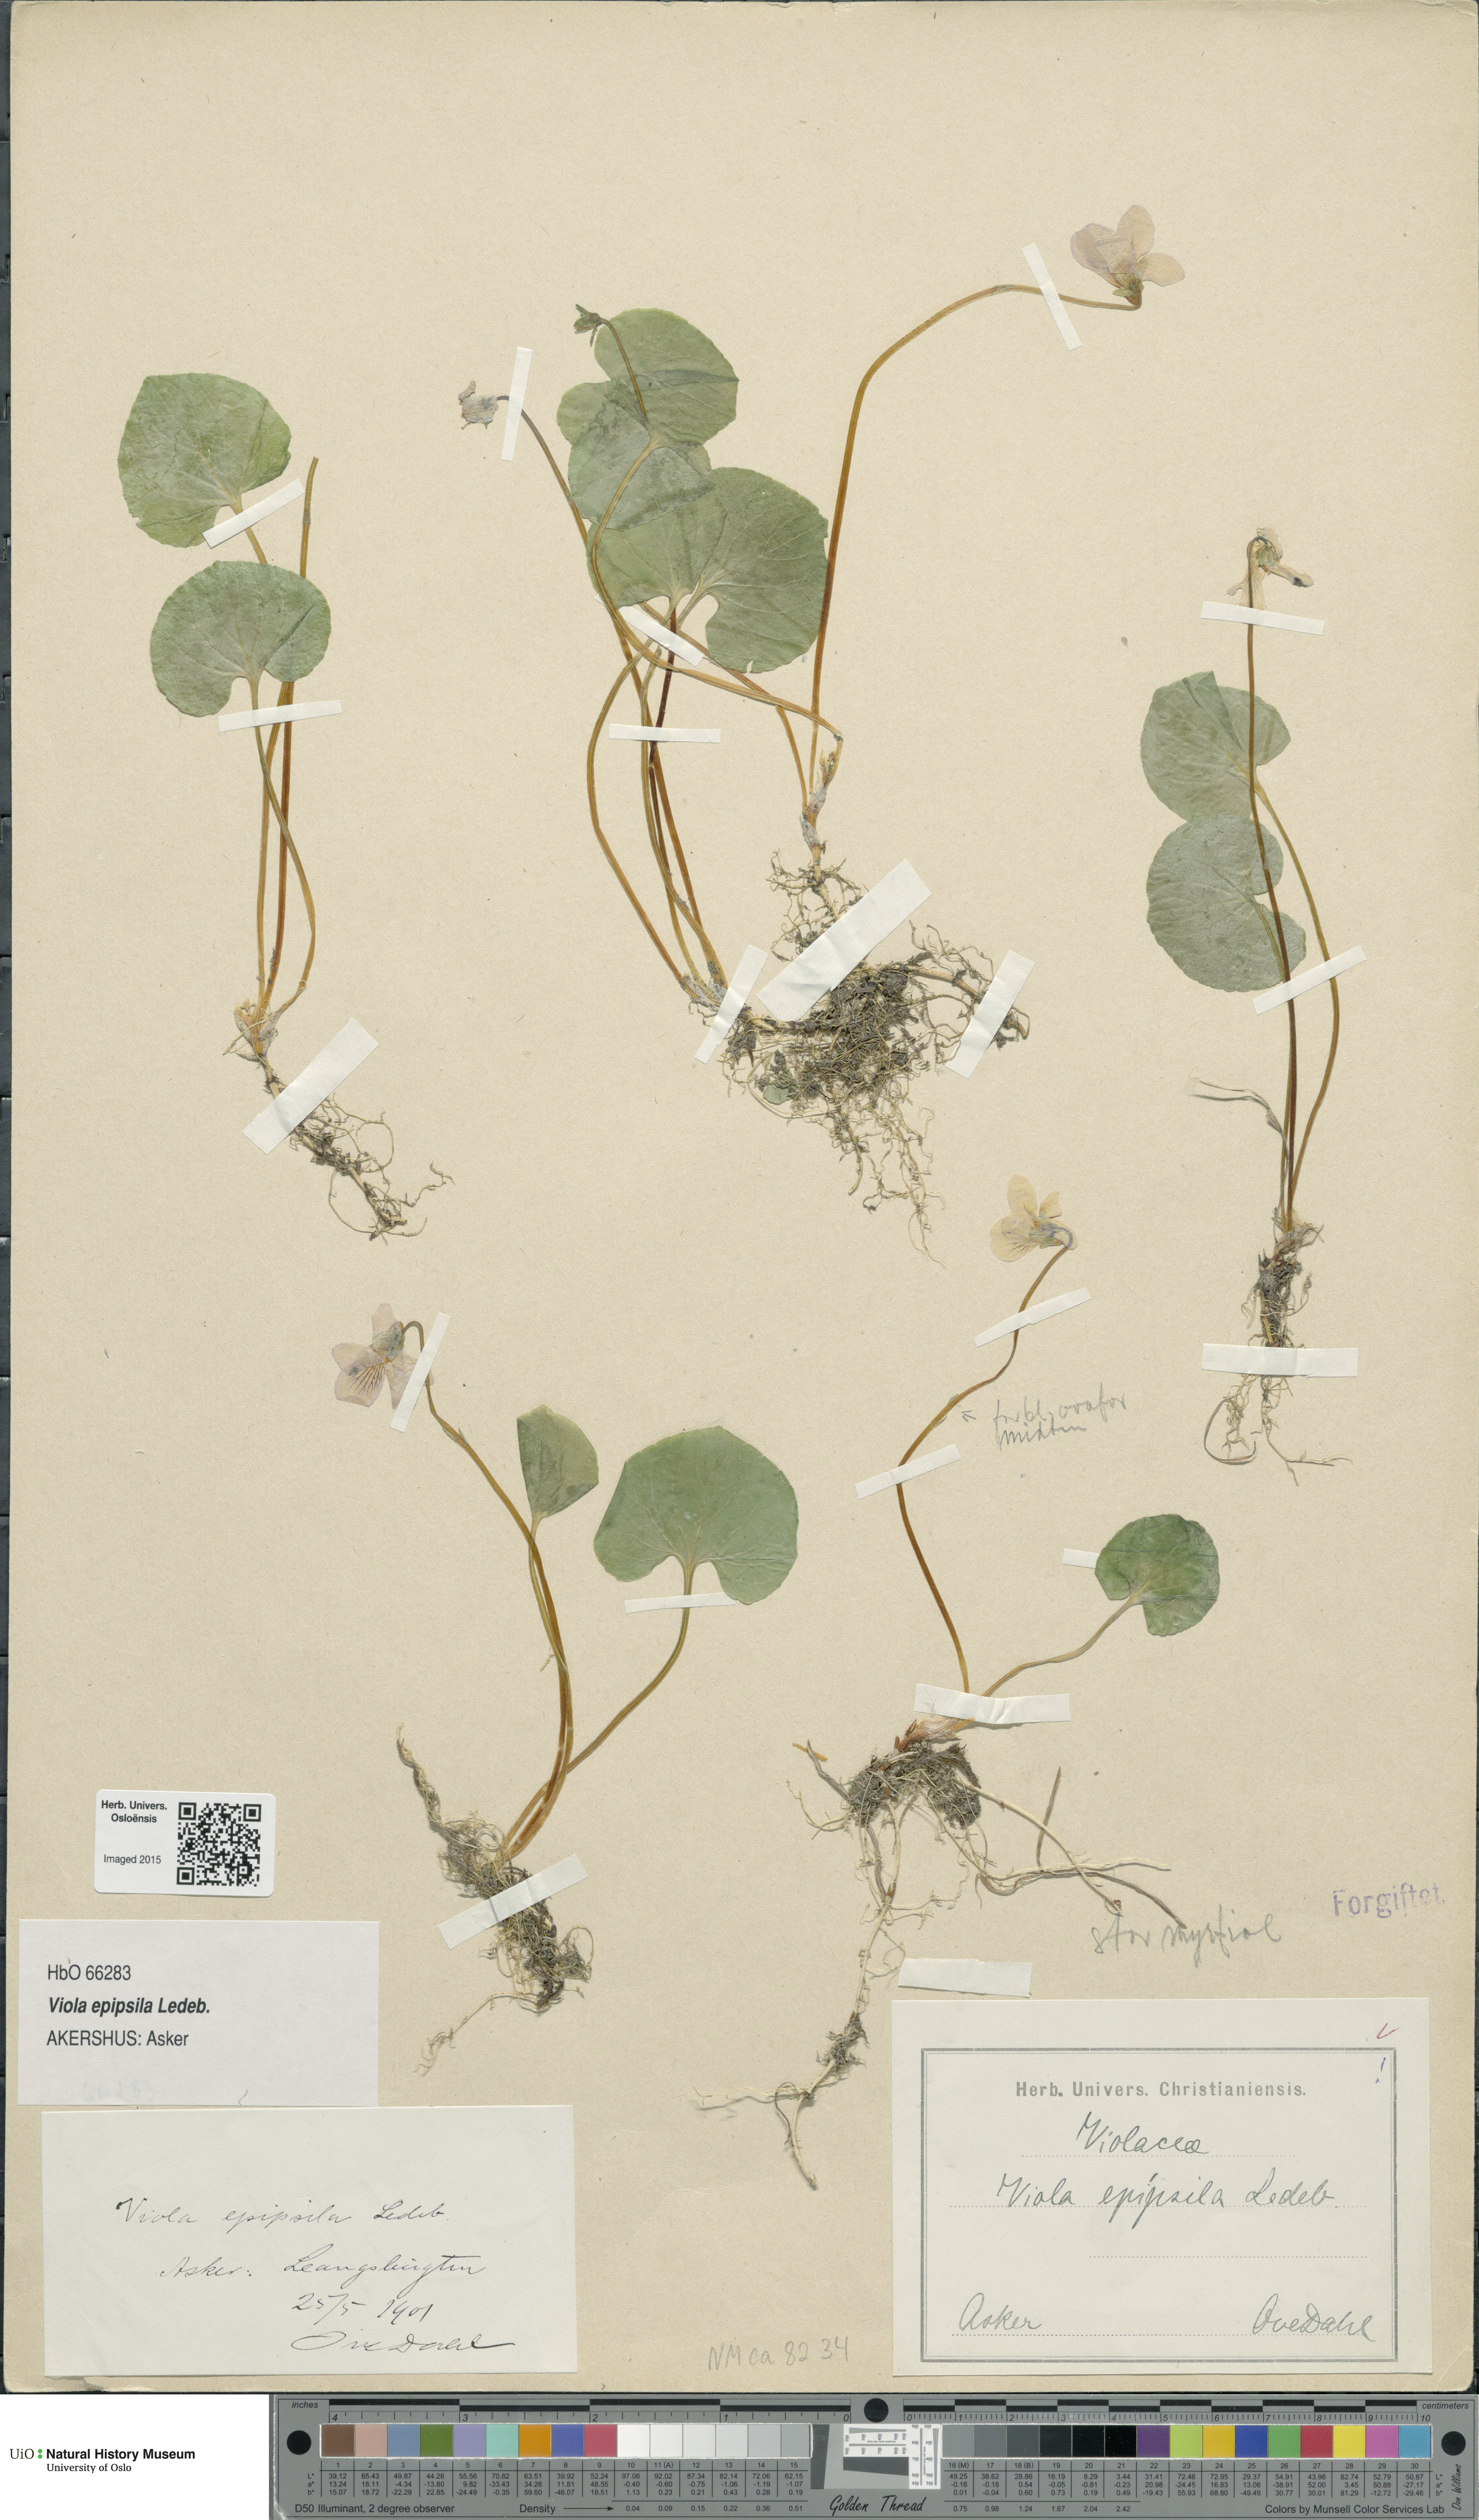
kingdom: Plantae
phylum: Tracheophyta
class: Magnoliopsida
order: Malpighiales
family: Violaceae
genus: Viola
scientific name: Viola epipsila
